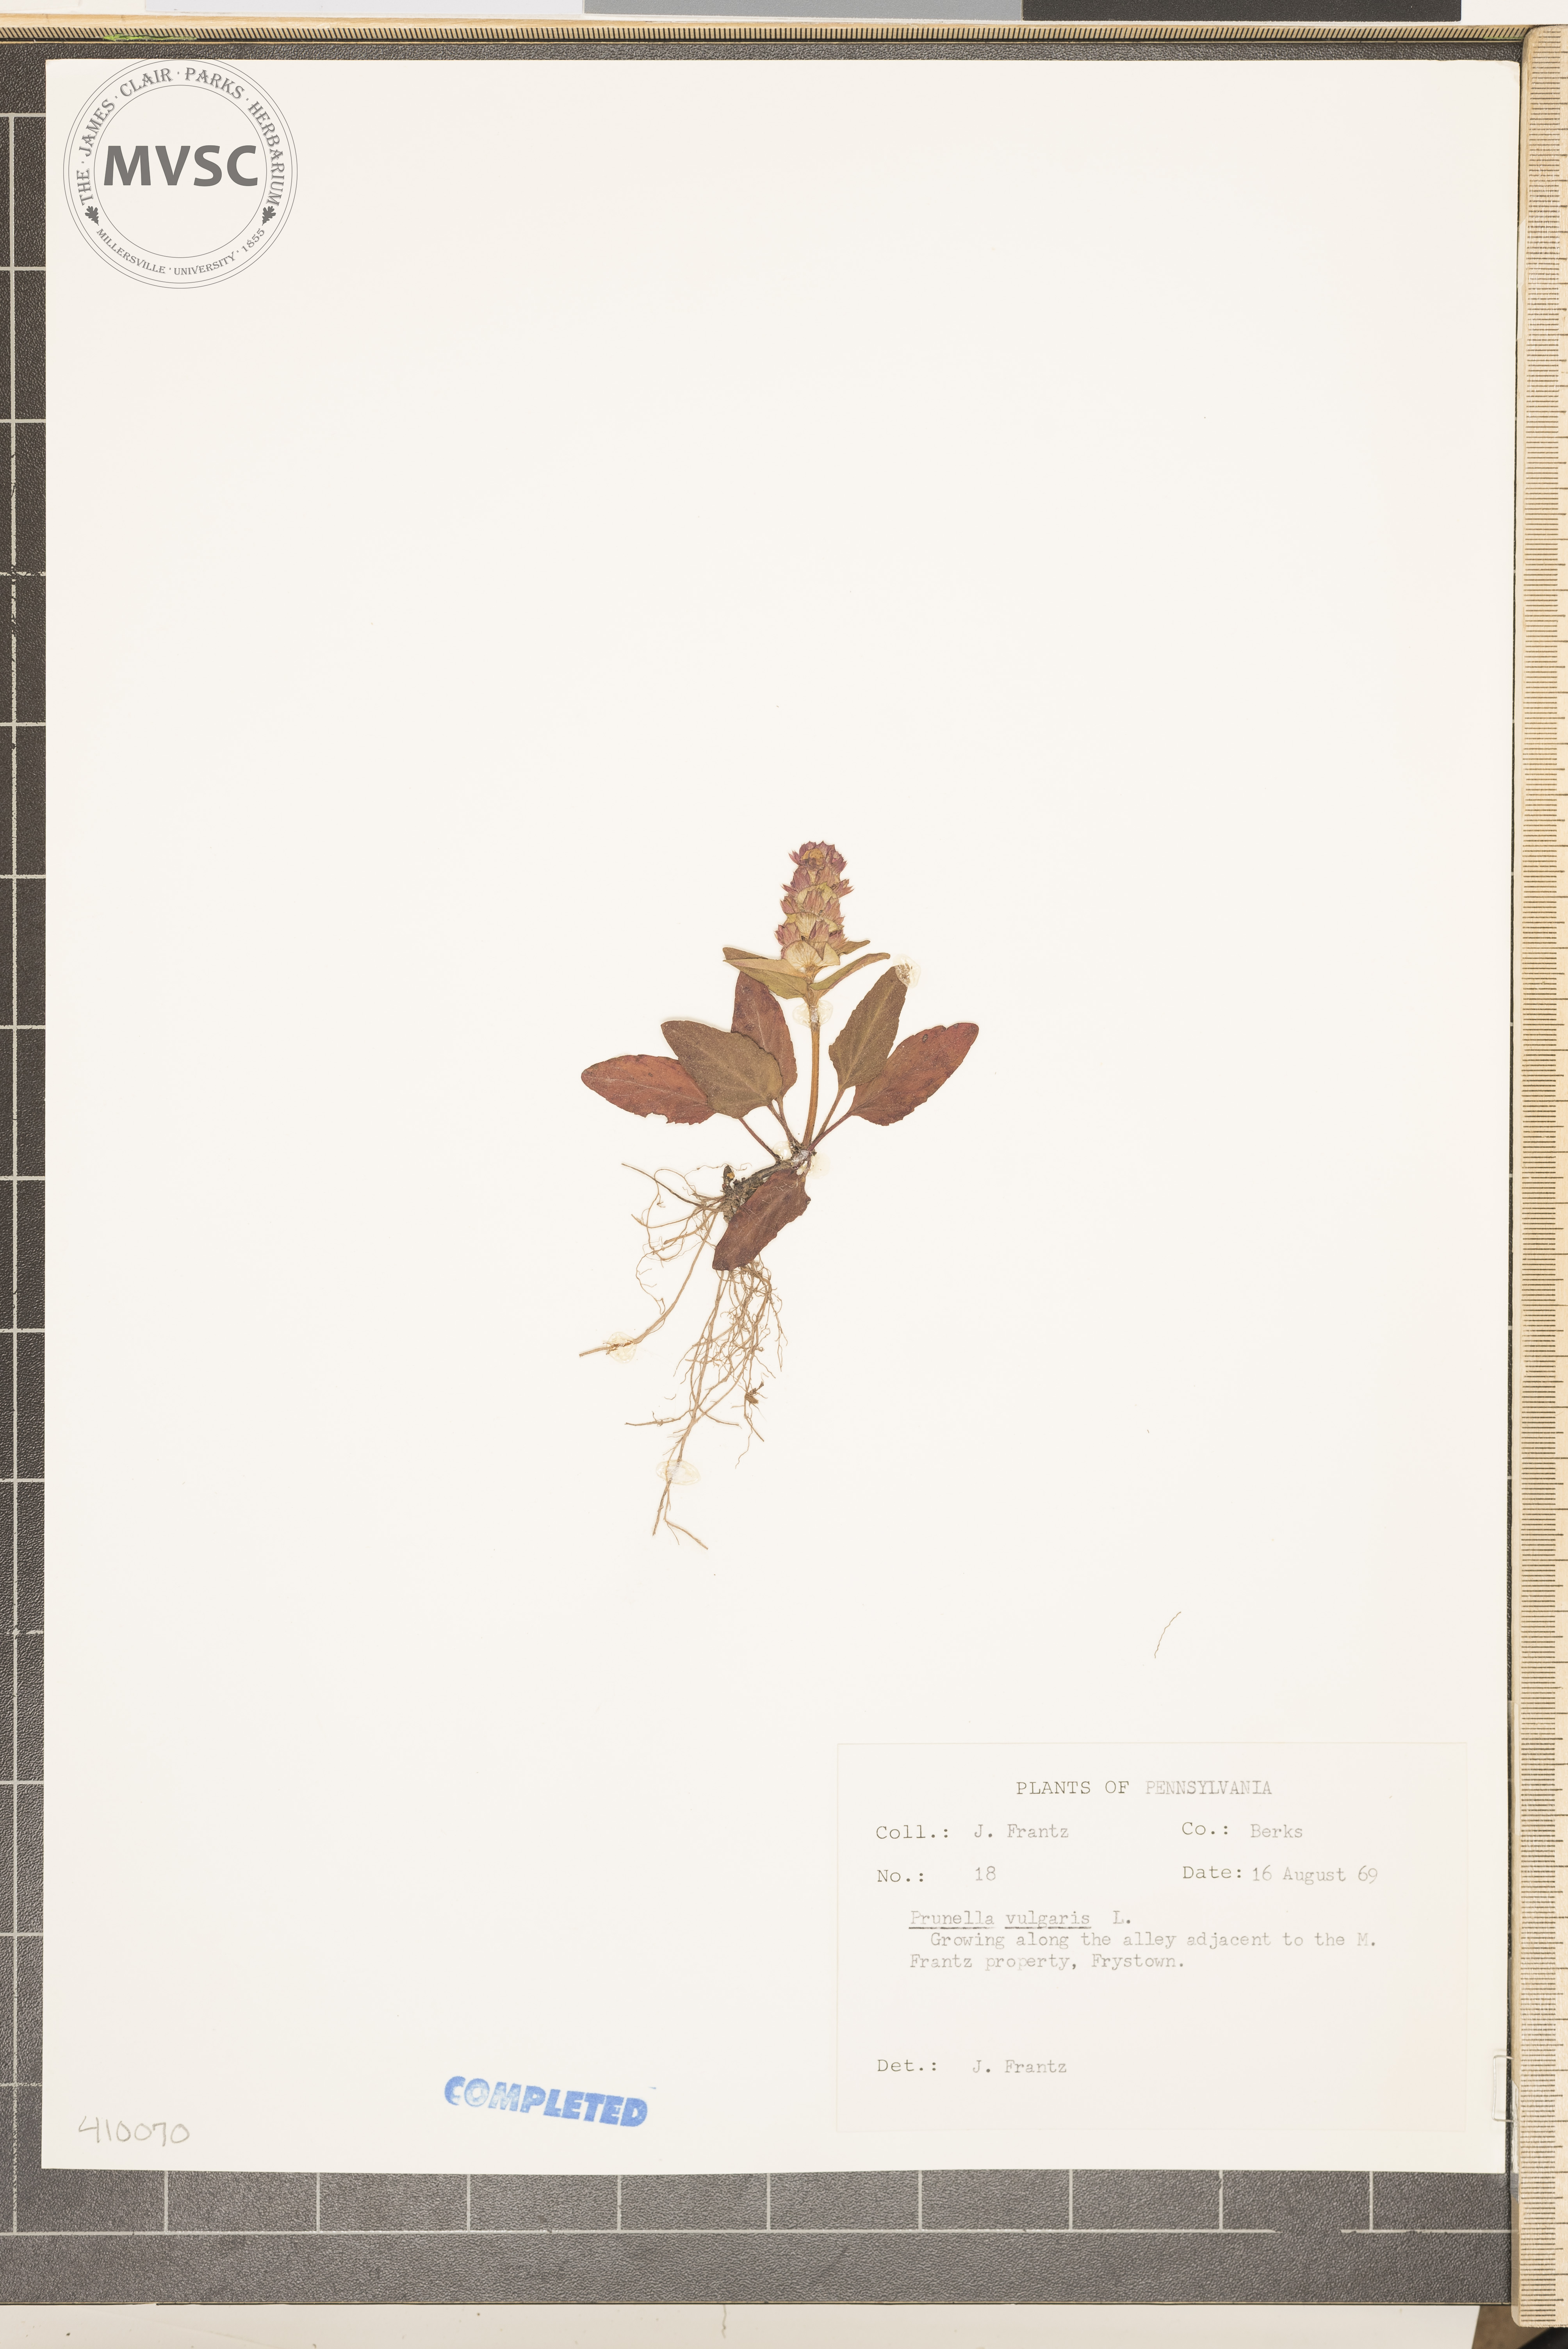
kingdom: Plantae
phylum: Tracheophyta
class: Magnoliopsida
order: Lamiales
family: Lamiaceae
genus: Prunella
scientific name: Prunella vulgaris
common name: Heal-all
